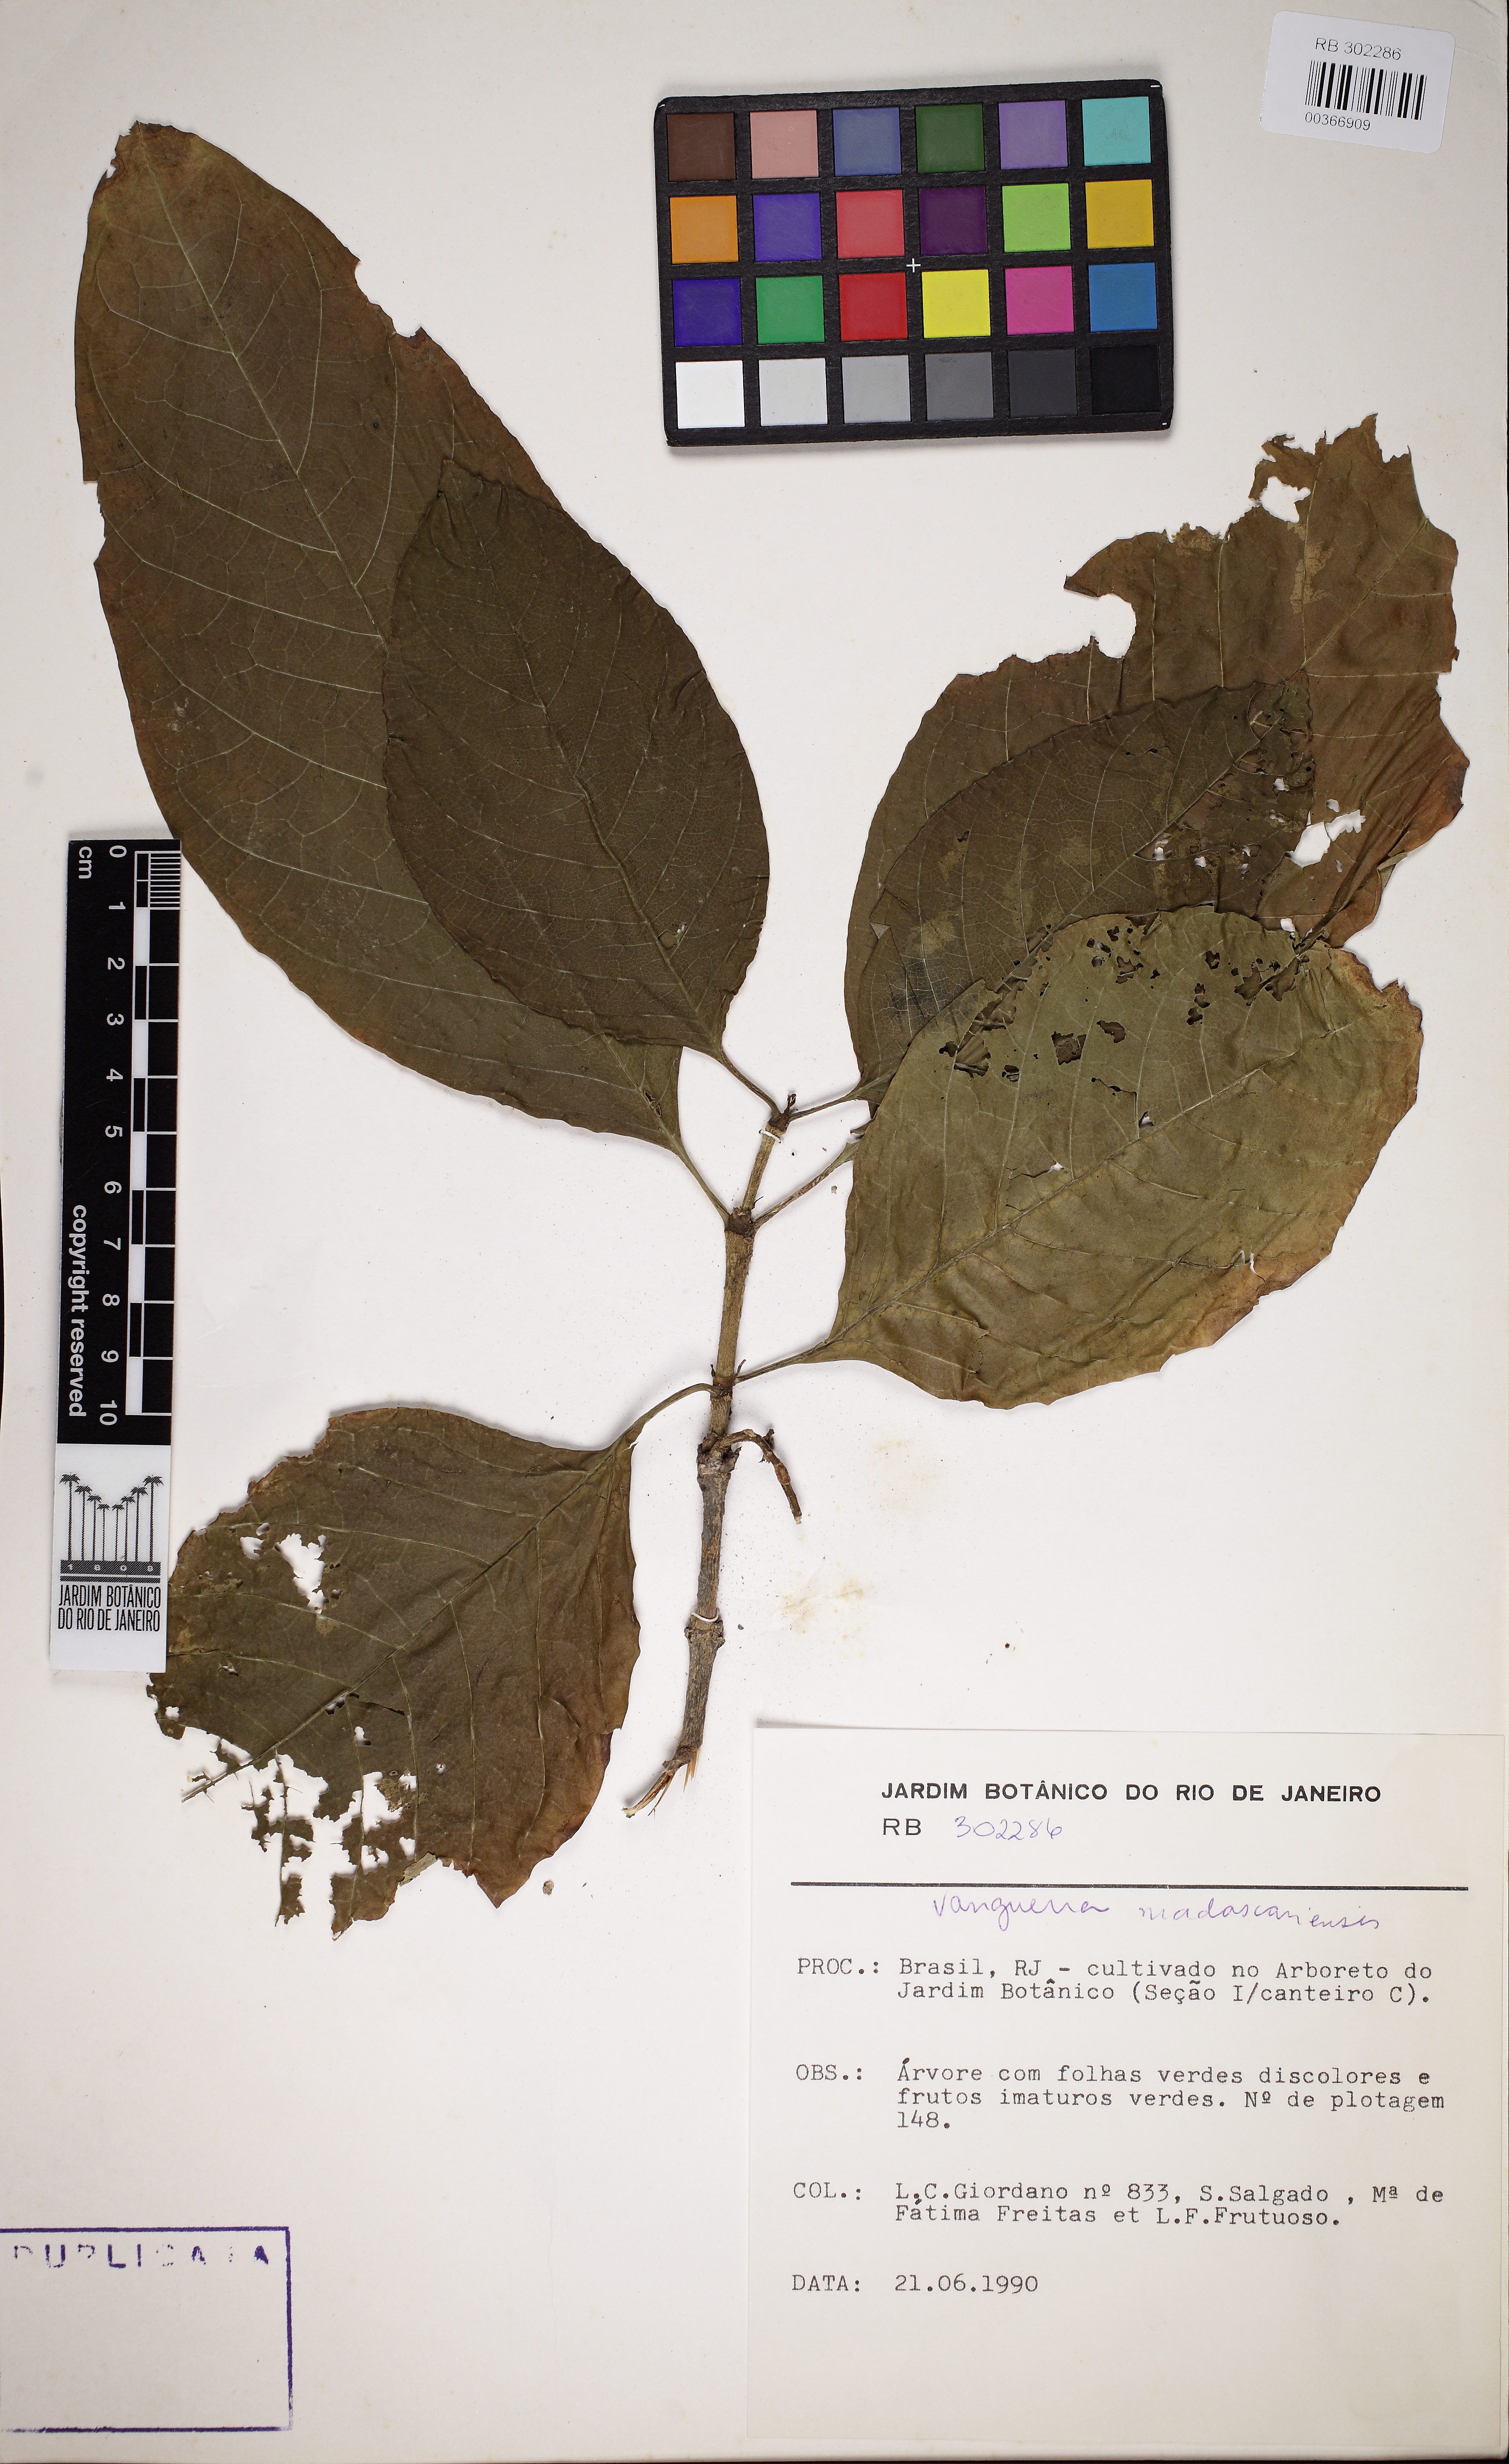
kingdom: Plantae
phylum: Tracheophyta
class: Magnoliopsida
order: Gentianales
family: Rubiaceae
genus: Vangueria
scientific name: Vangueria madagascariensis
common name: Smooth wild-medlar
